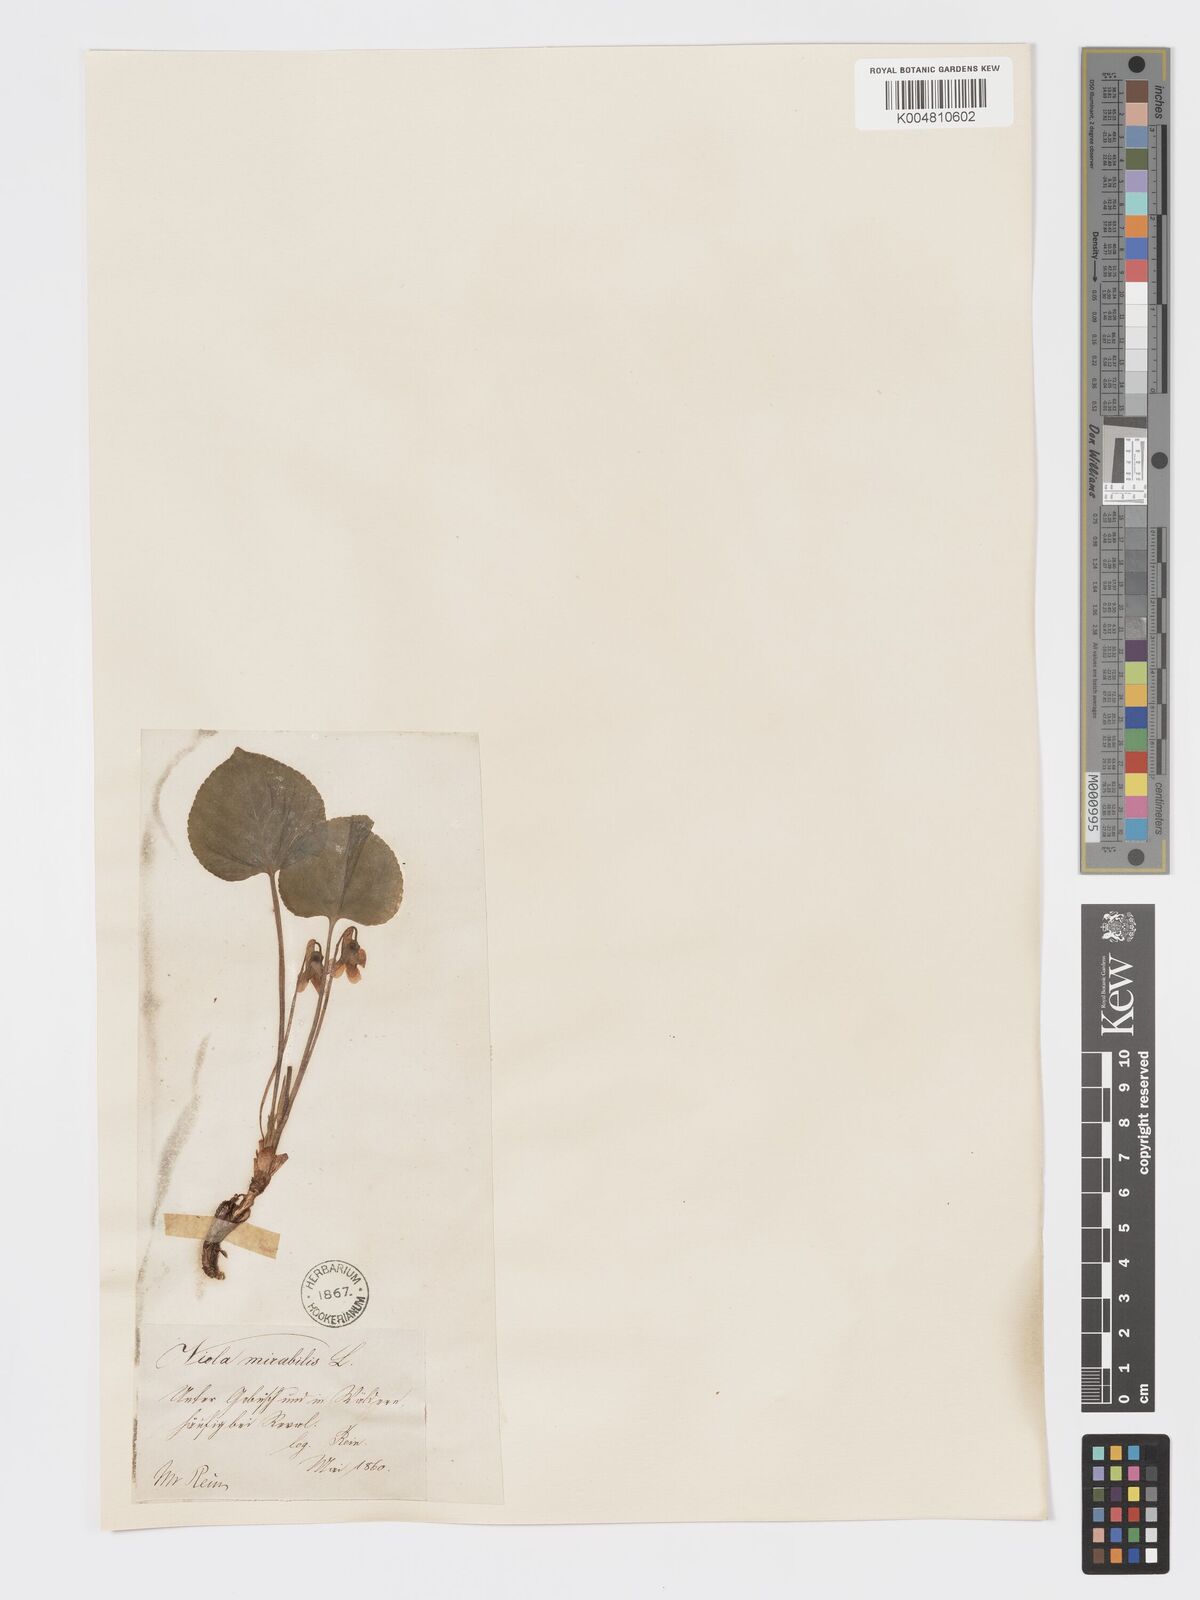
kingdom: Plantae
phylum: Tracheophyta
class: Magnoliopsida
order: Malpighiales
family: Violaceae
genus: Viola
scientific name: Viola mirabilis
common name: Wonder violet
